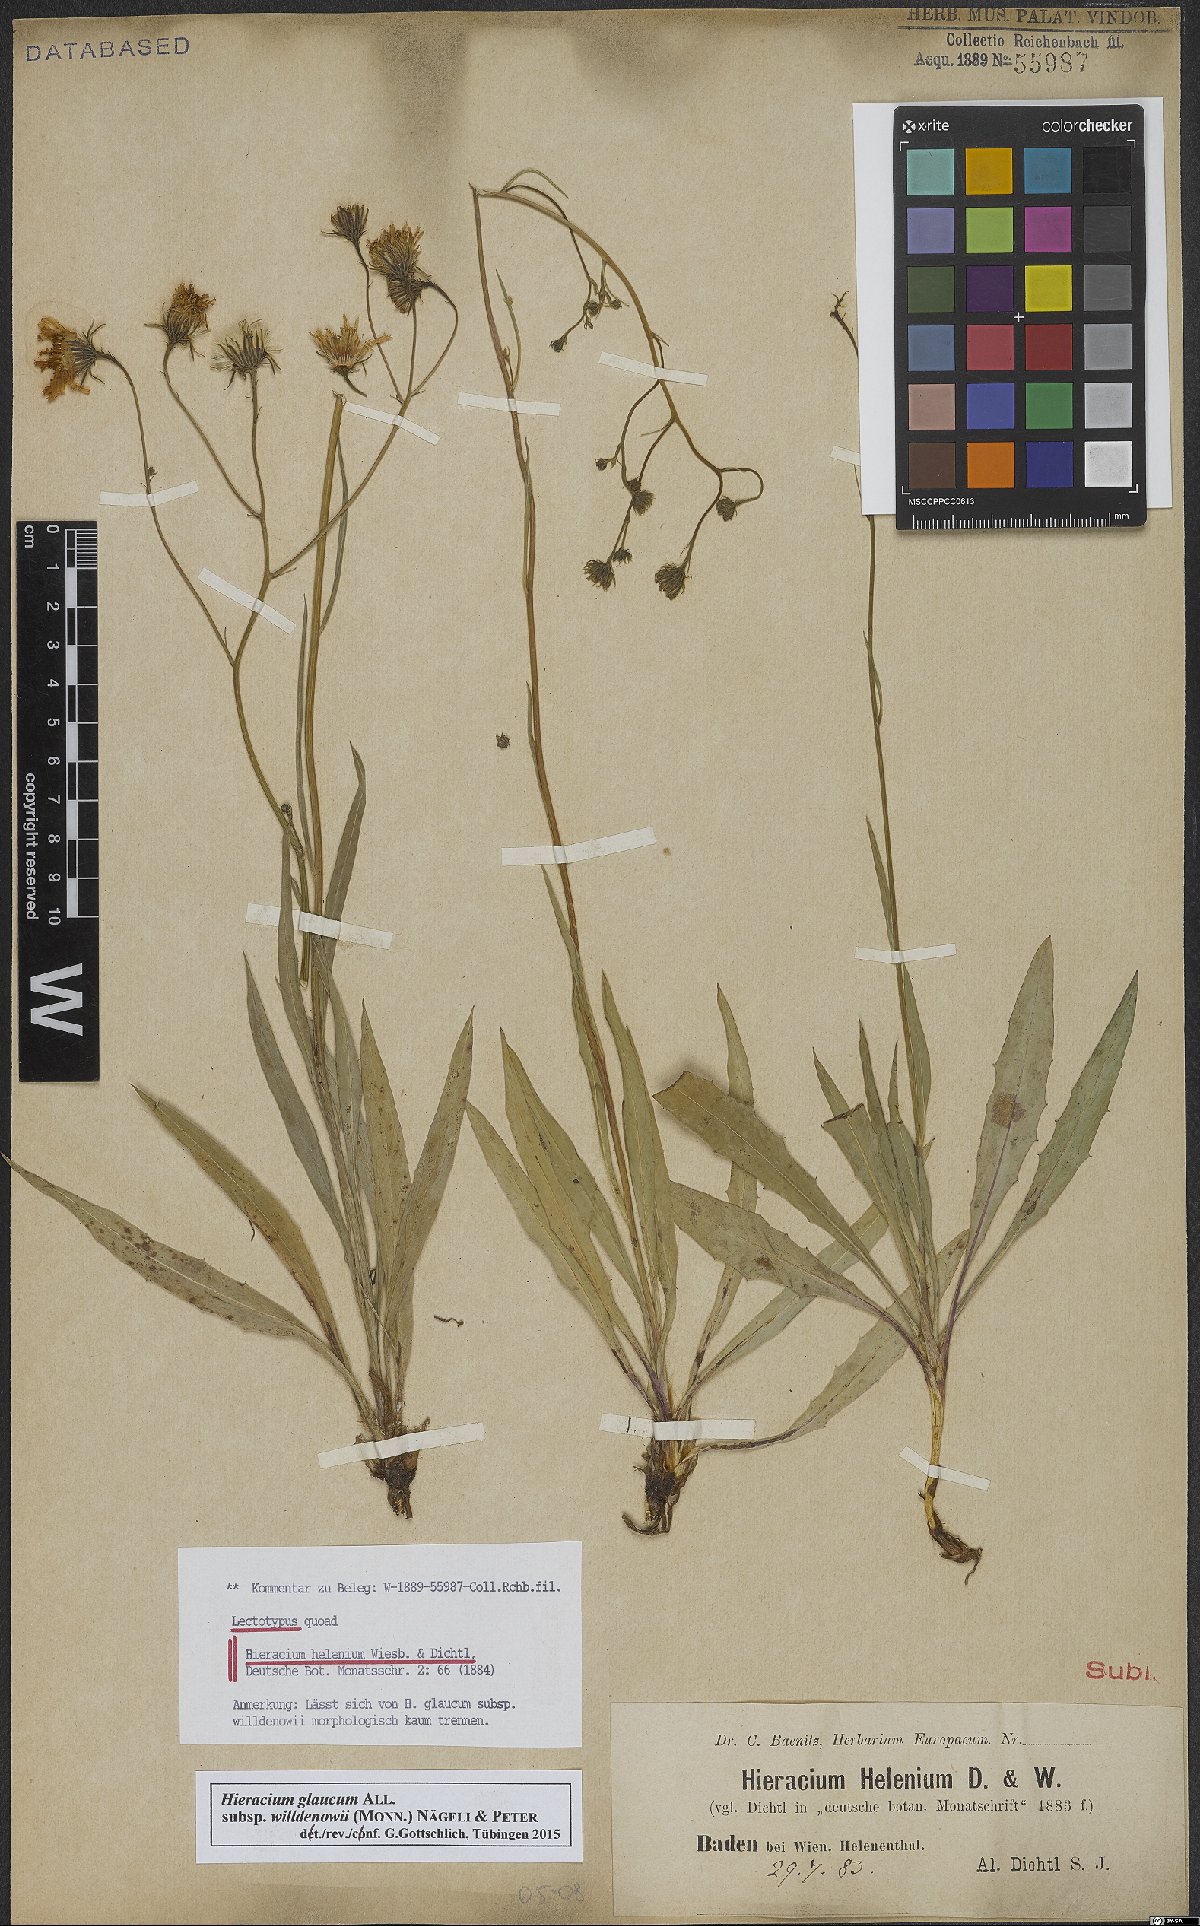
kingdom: Plantae
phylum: Tracheophyta
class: Magnoliopsida
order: Asterales
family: Asteraceae
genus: Hieracium
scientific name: Hieracium glaucum
